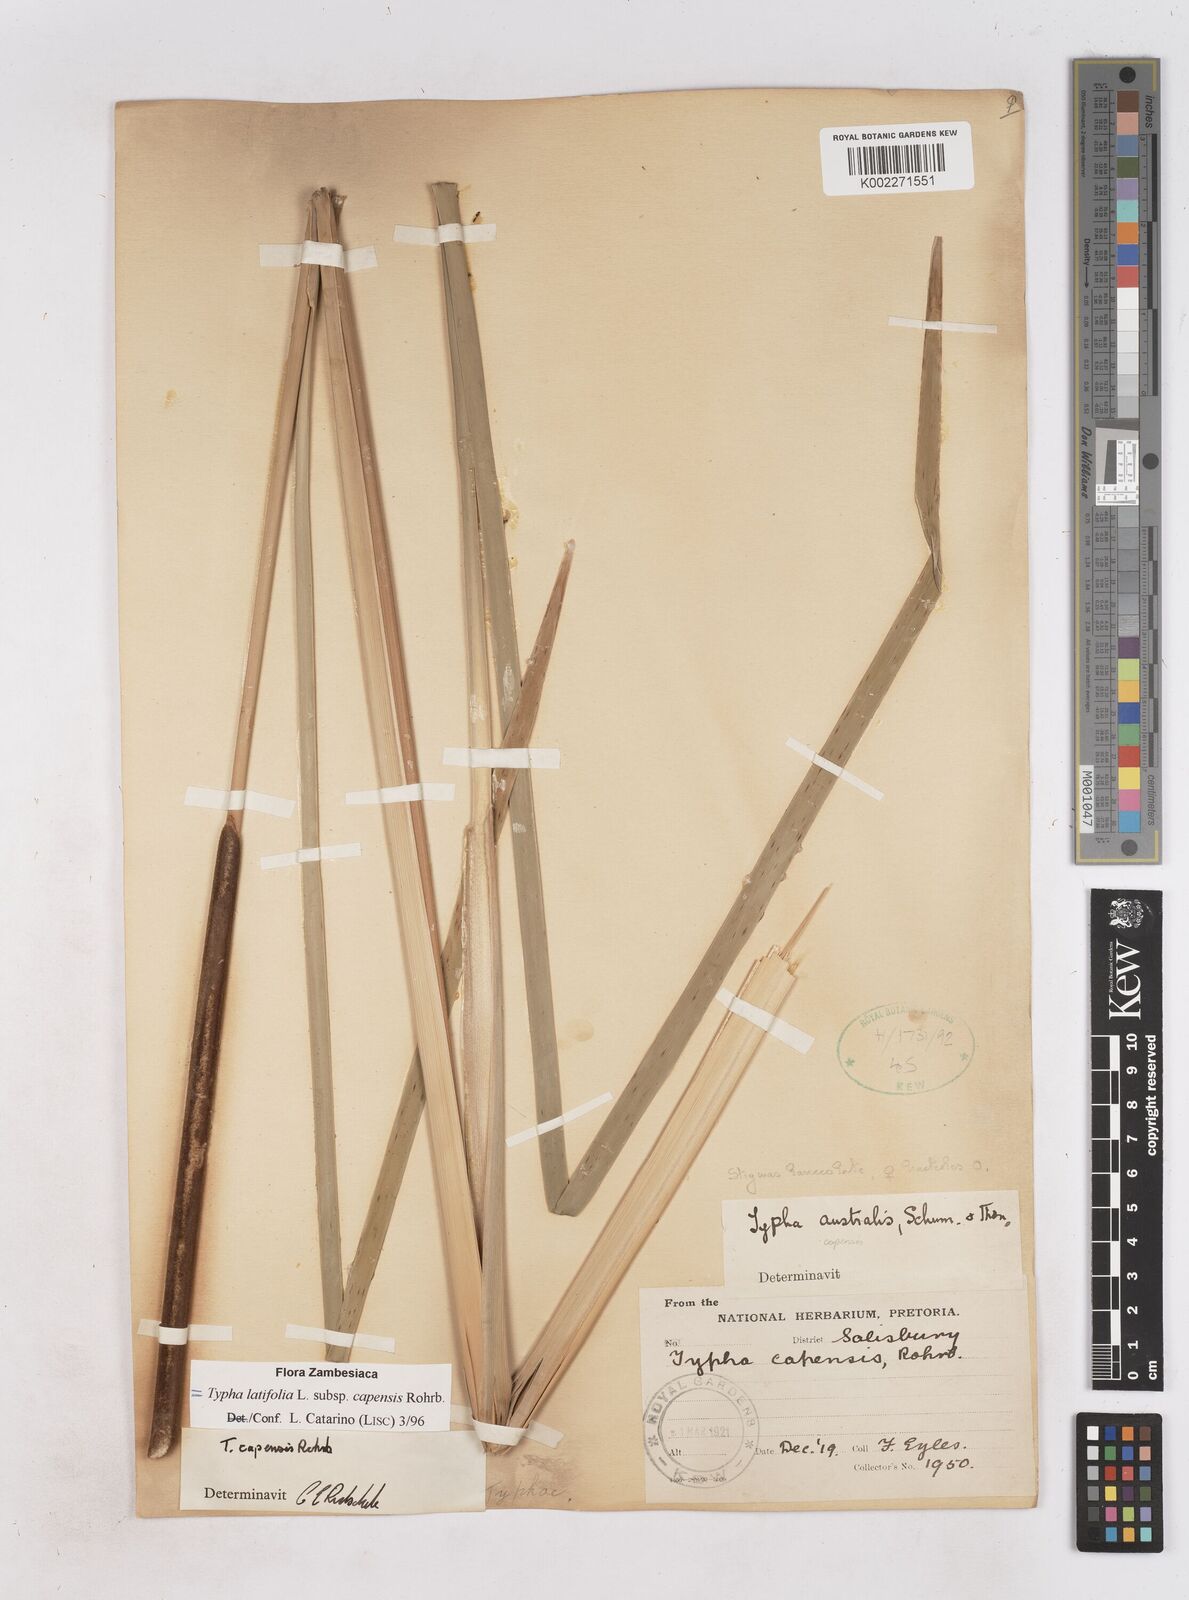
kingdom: Plantae
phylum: Tracheophyta
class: Liliopsida
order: Poales
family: Typhaceae
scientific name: Typhaceae
